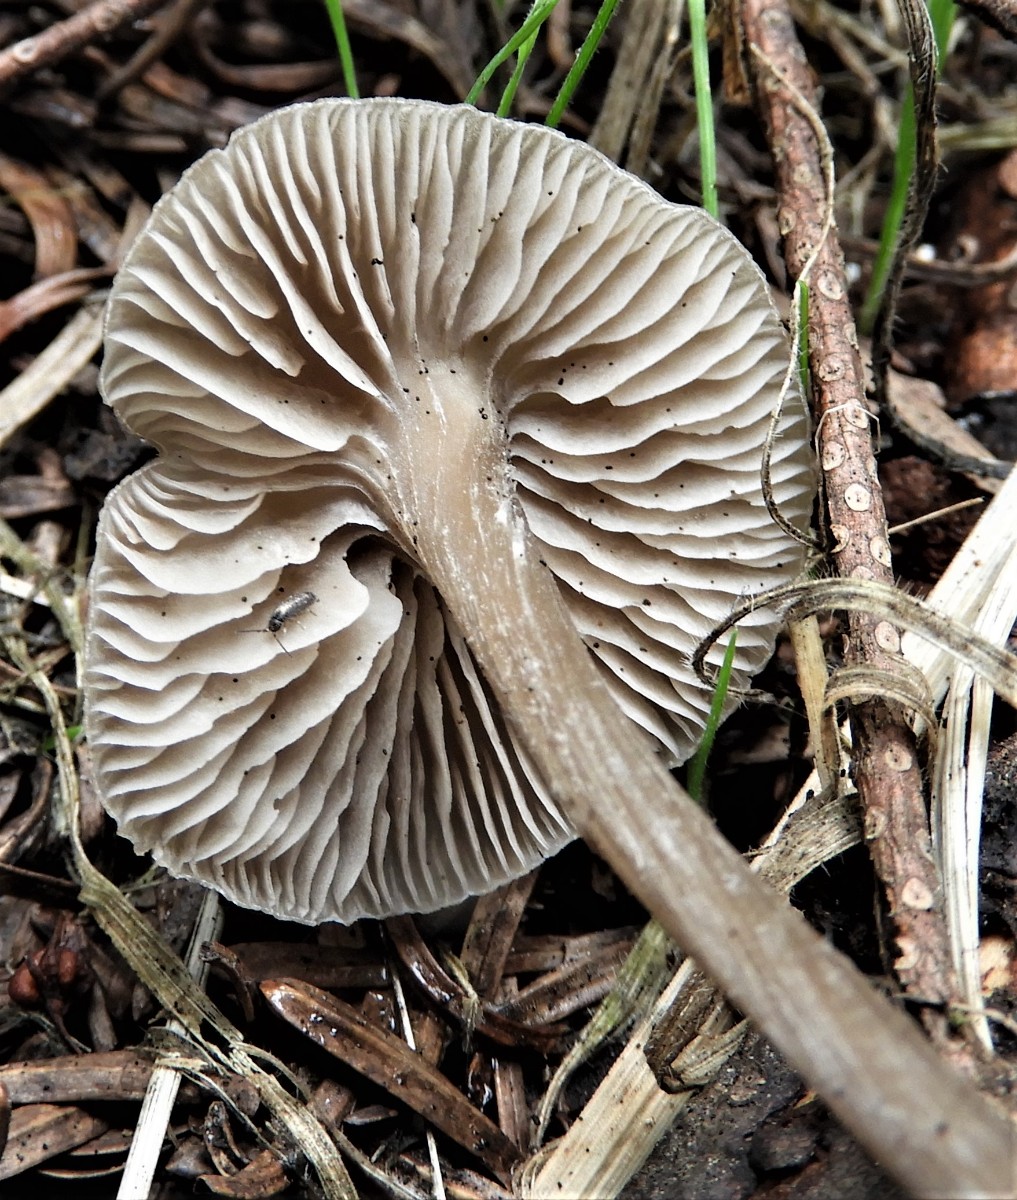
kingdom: Fungi
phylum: Basidiomycota
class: Agaricomycetes
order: Agaricales
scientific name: Agaricales
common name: champignonordenen
